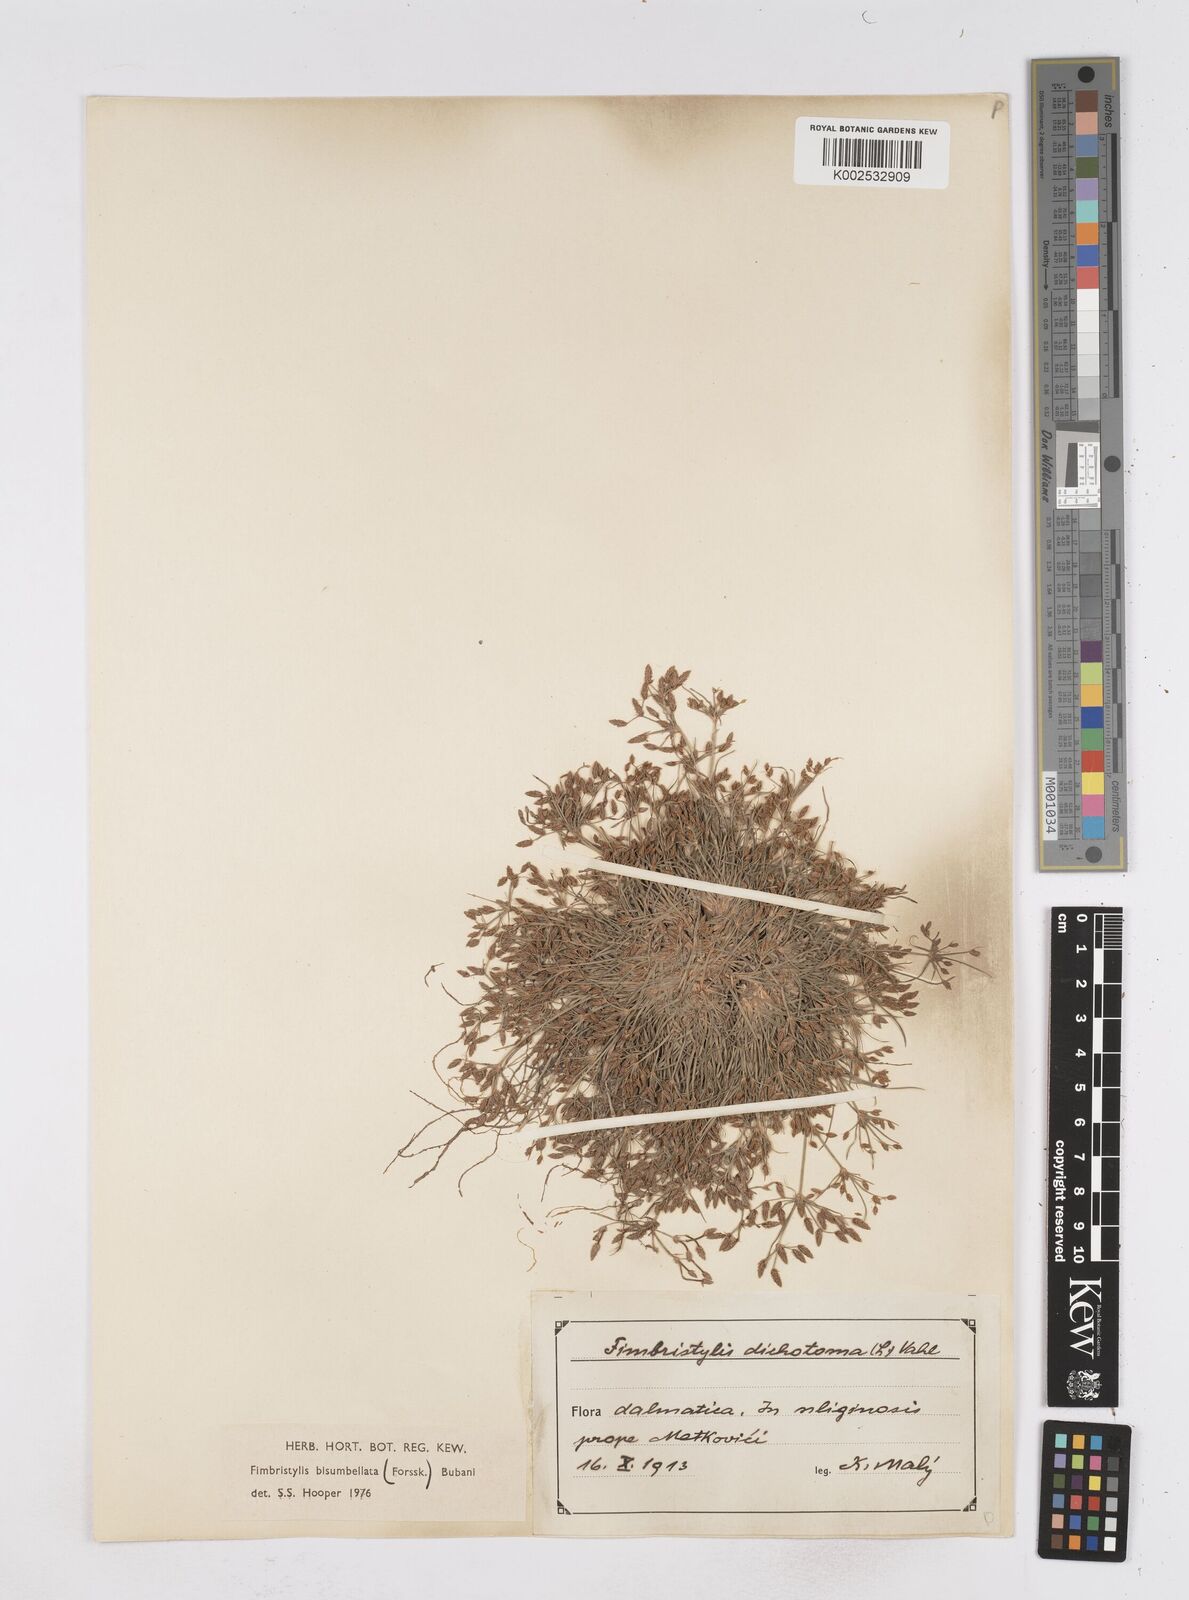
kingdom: Plantae
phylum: Tracheophyta
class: Liliopsida
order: Poales
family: Cyperaceae
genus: Fimbristylis
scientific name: Fimbristylis bisumbellata
